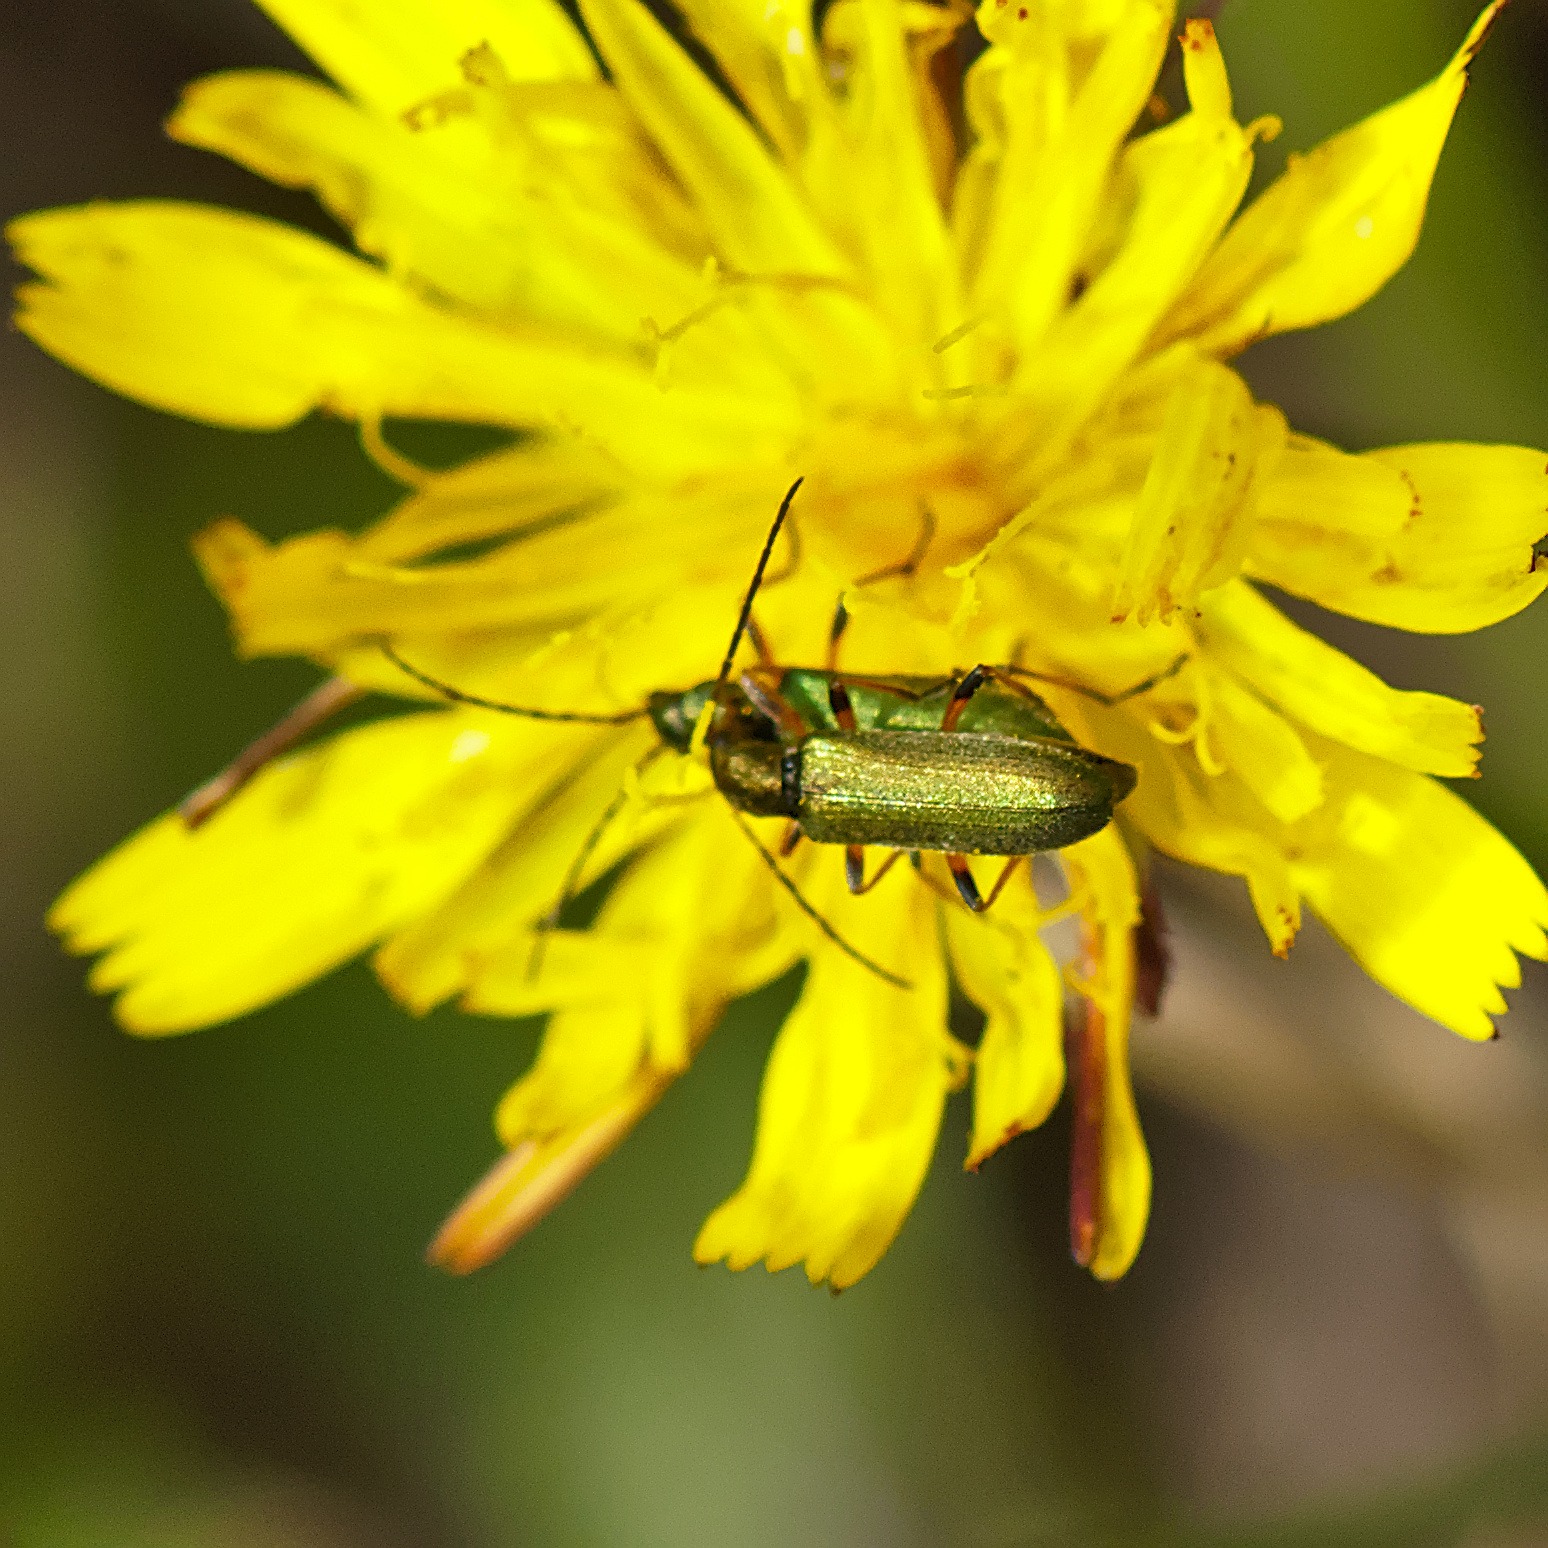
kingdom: Animalia
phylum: Arthropoda
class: Insecta
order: Coleoptera
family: Oedemeridae
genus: Chrysanthia
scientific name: Chrysanthia geniculata
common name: Grøn solbille
